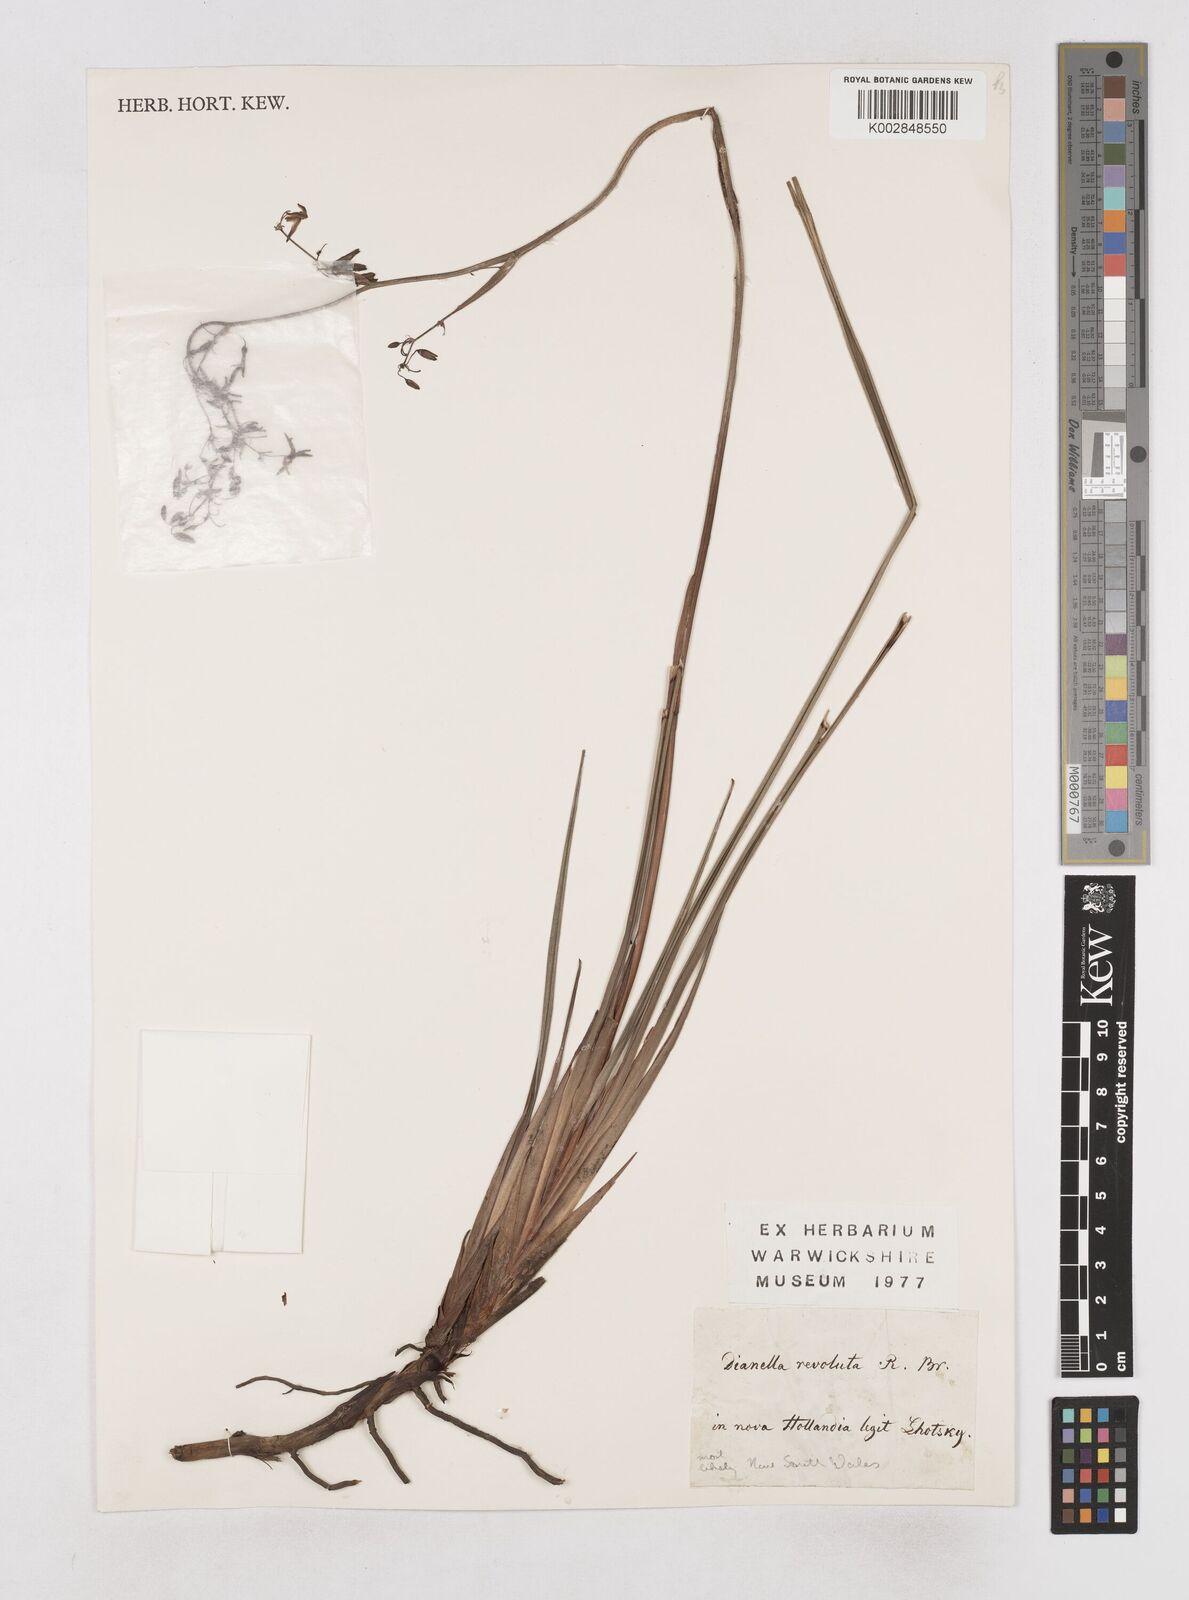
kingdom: Plantae
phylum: Tracheophyta
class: Liliopsida
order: Asparagales
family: Asphodelaceae
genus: Dianella
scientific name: Dianella revoluta
